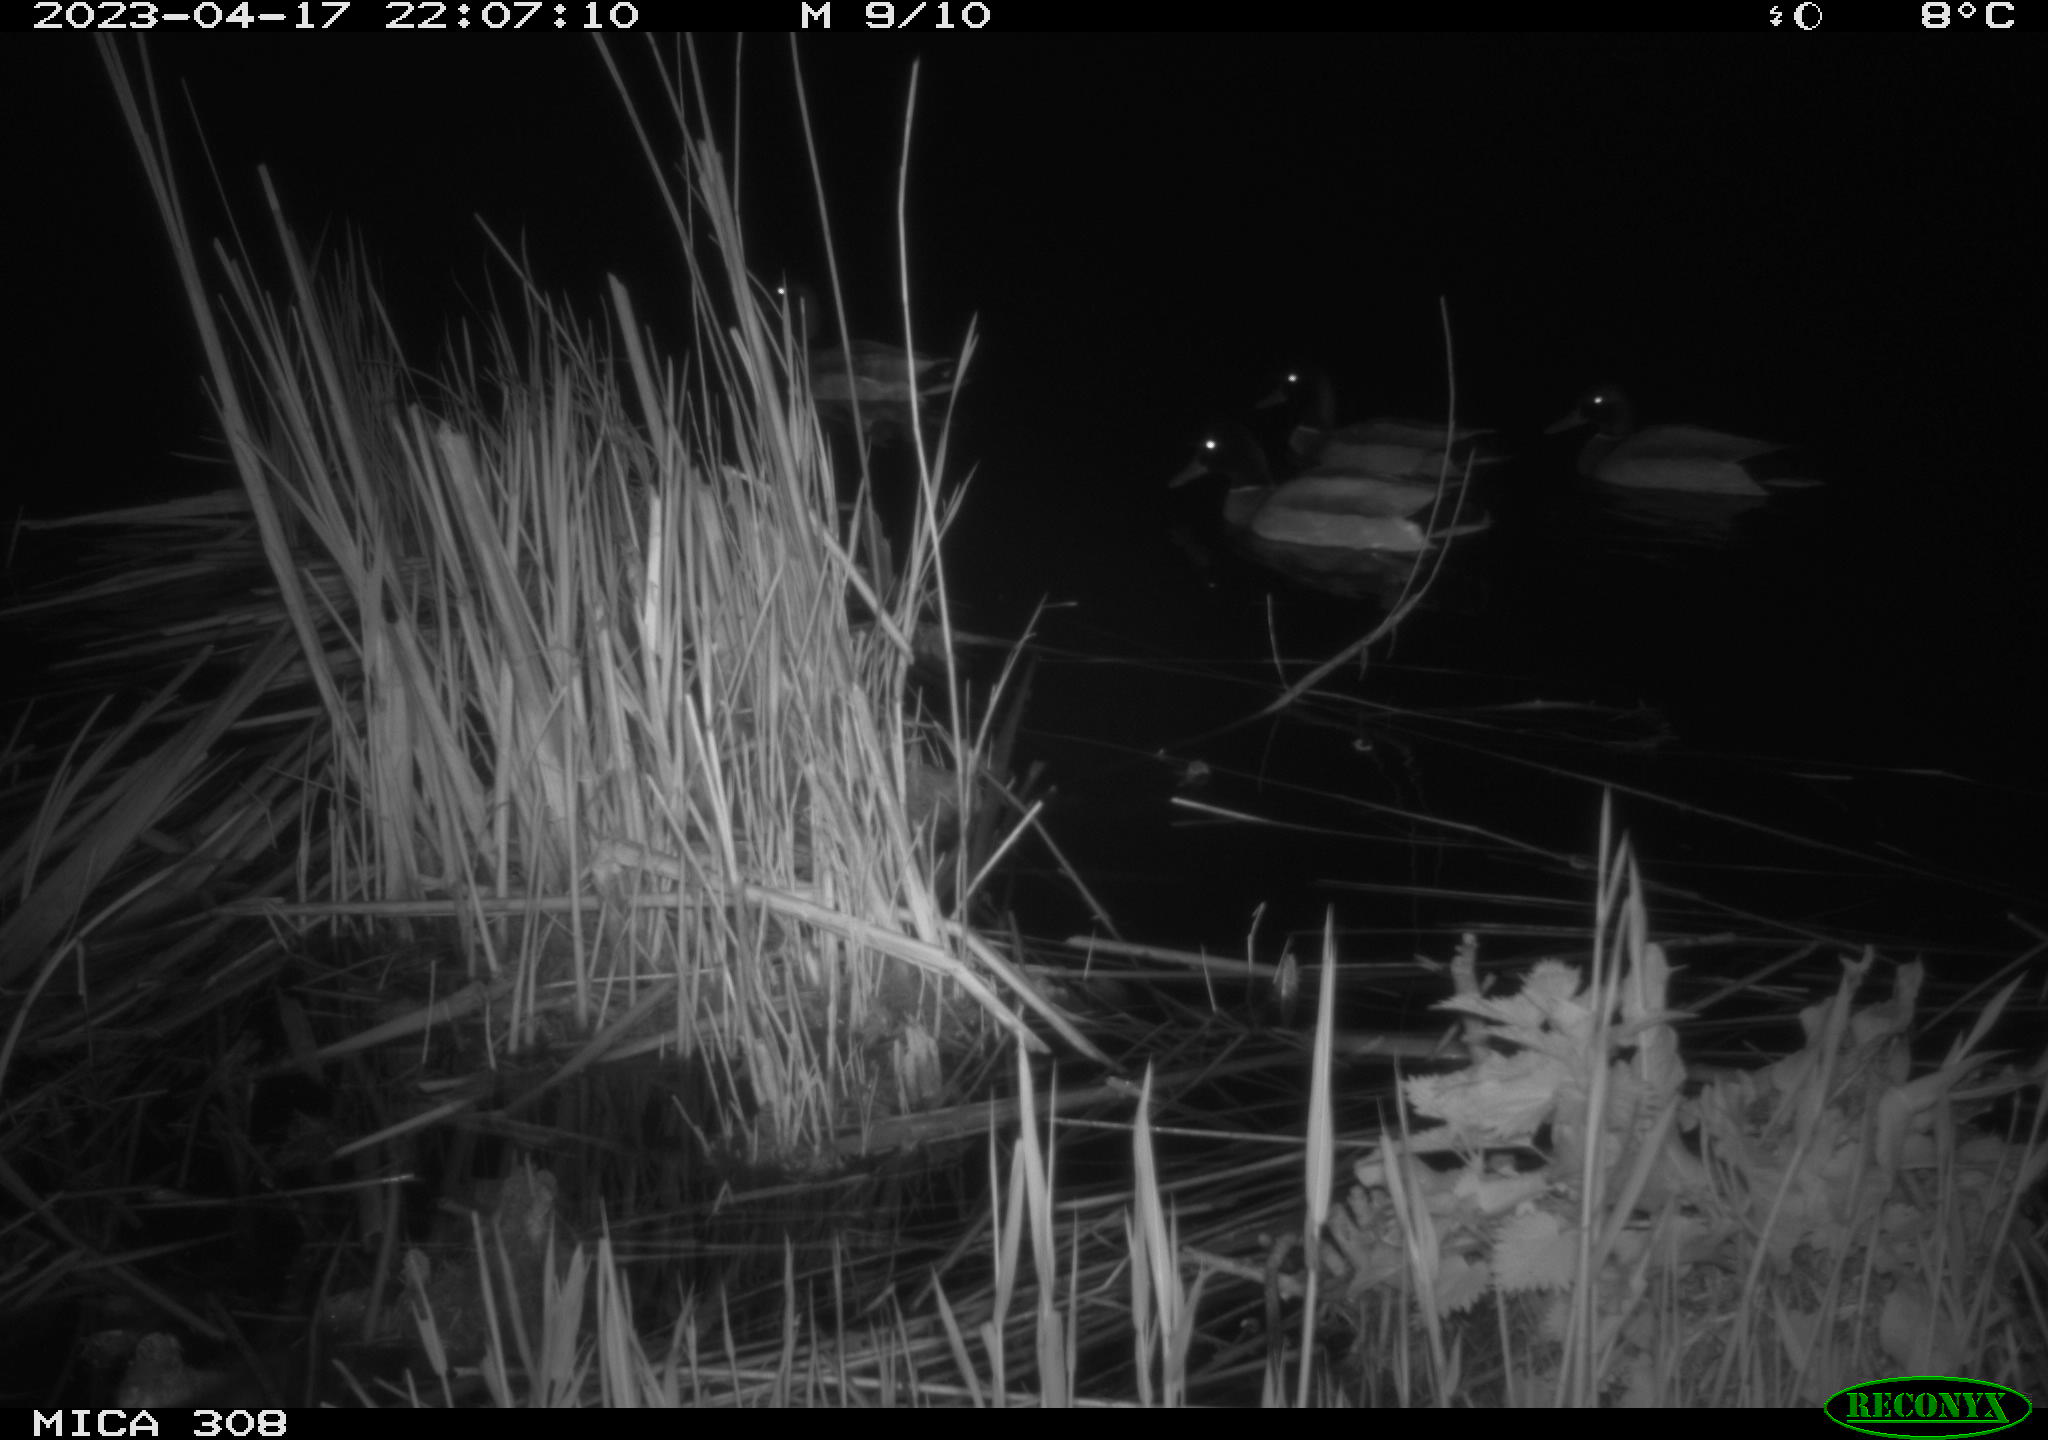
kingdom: Animalia
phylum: Chordata
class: Aves
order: Anseriformes
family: Anatidae
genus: Anas
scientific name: Anas
